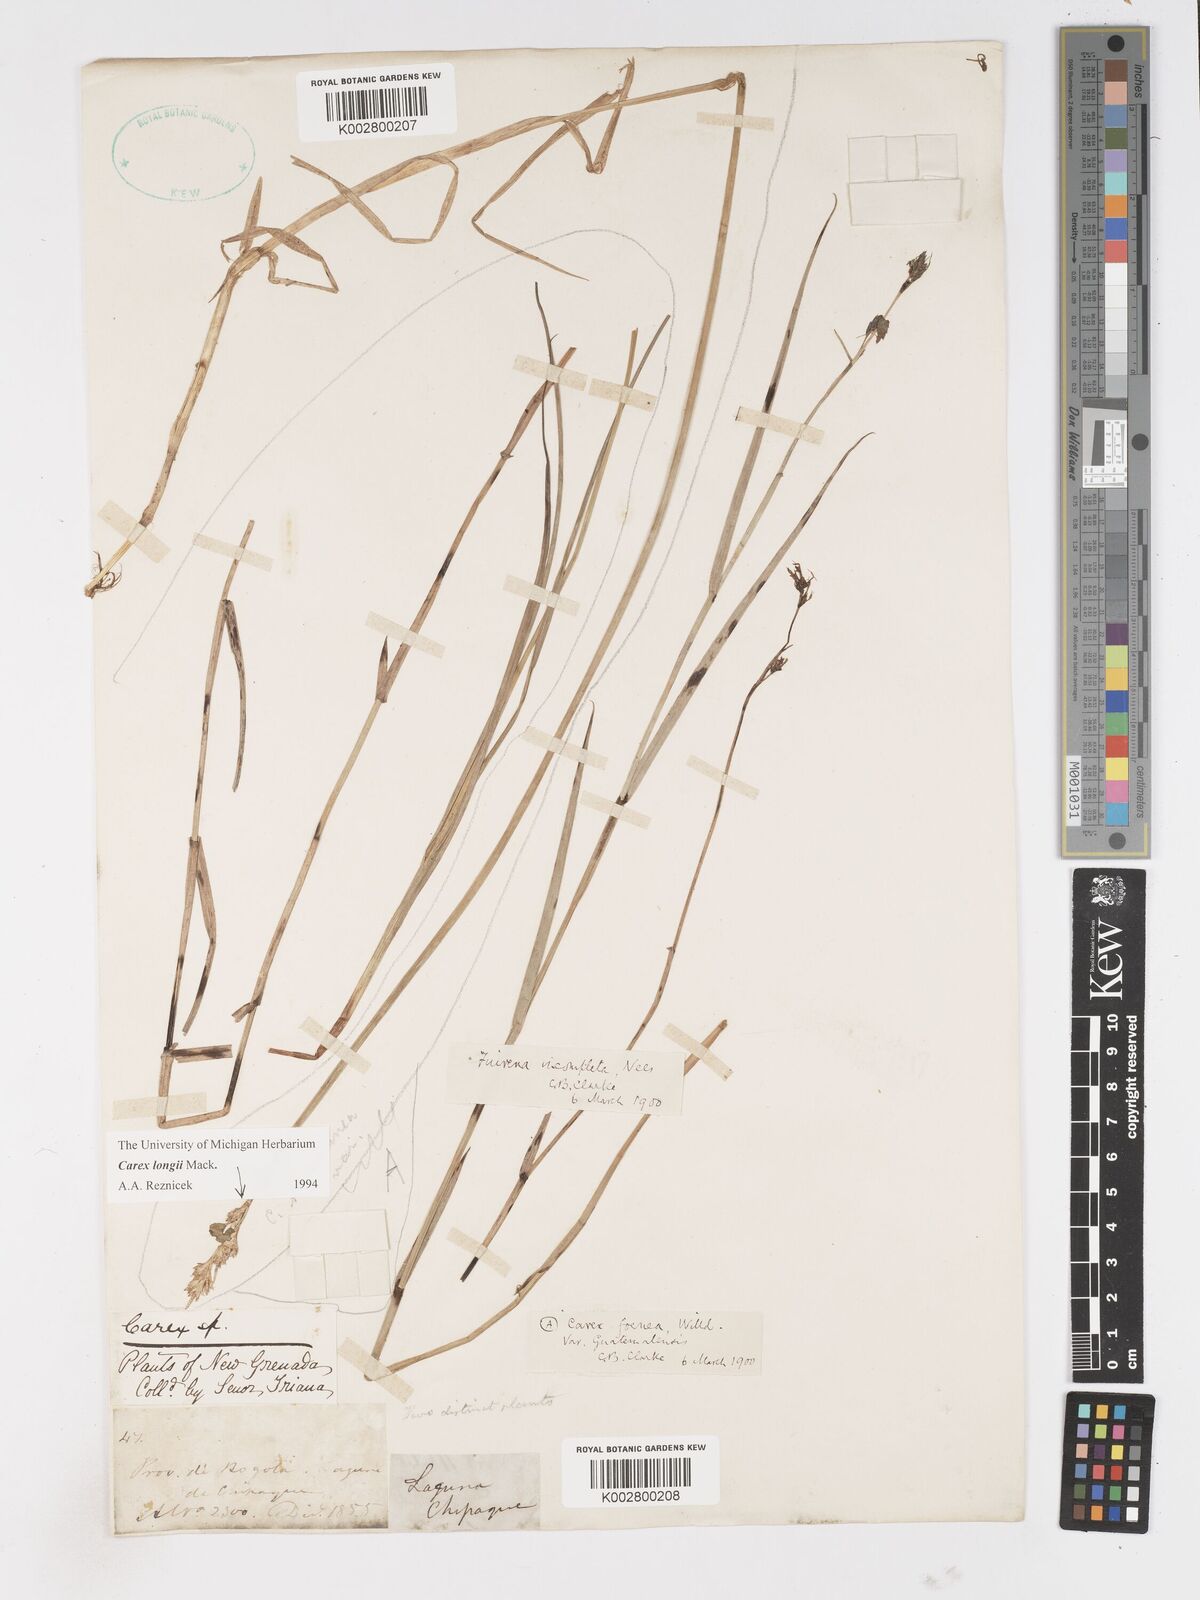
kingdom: Plantae
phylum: Tracheophyta
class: Liliopsida
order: Poales
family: Cyperaceae
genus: Carex
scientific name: Carex longii
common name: Long's sedge
